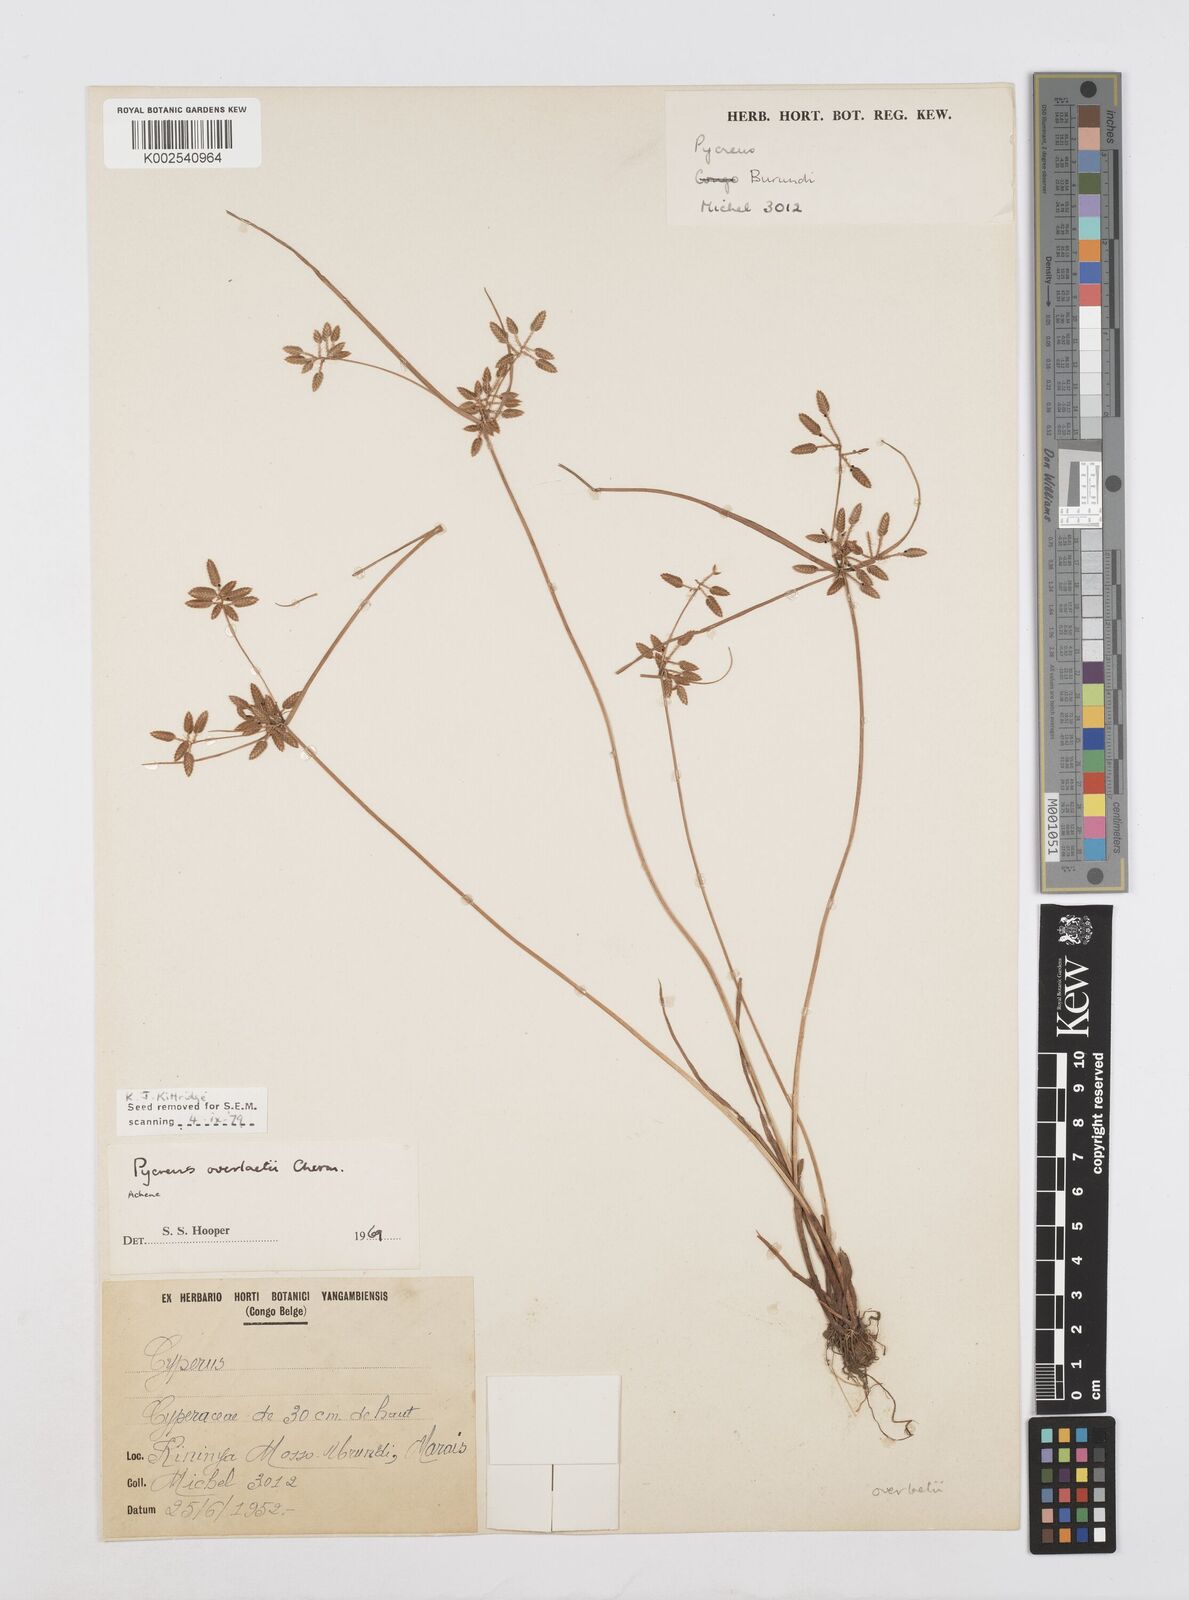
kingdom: Plantae
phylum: Tracheophyta
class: Liliopsida
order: Poales
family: Cyperaceae
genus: Cyperus
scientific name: Cyperus unioloides
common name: Uniola flatsedge
